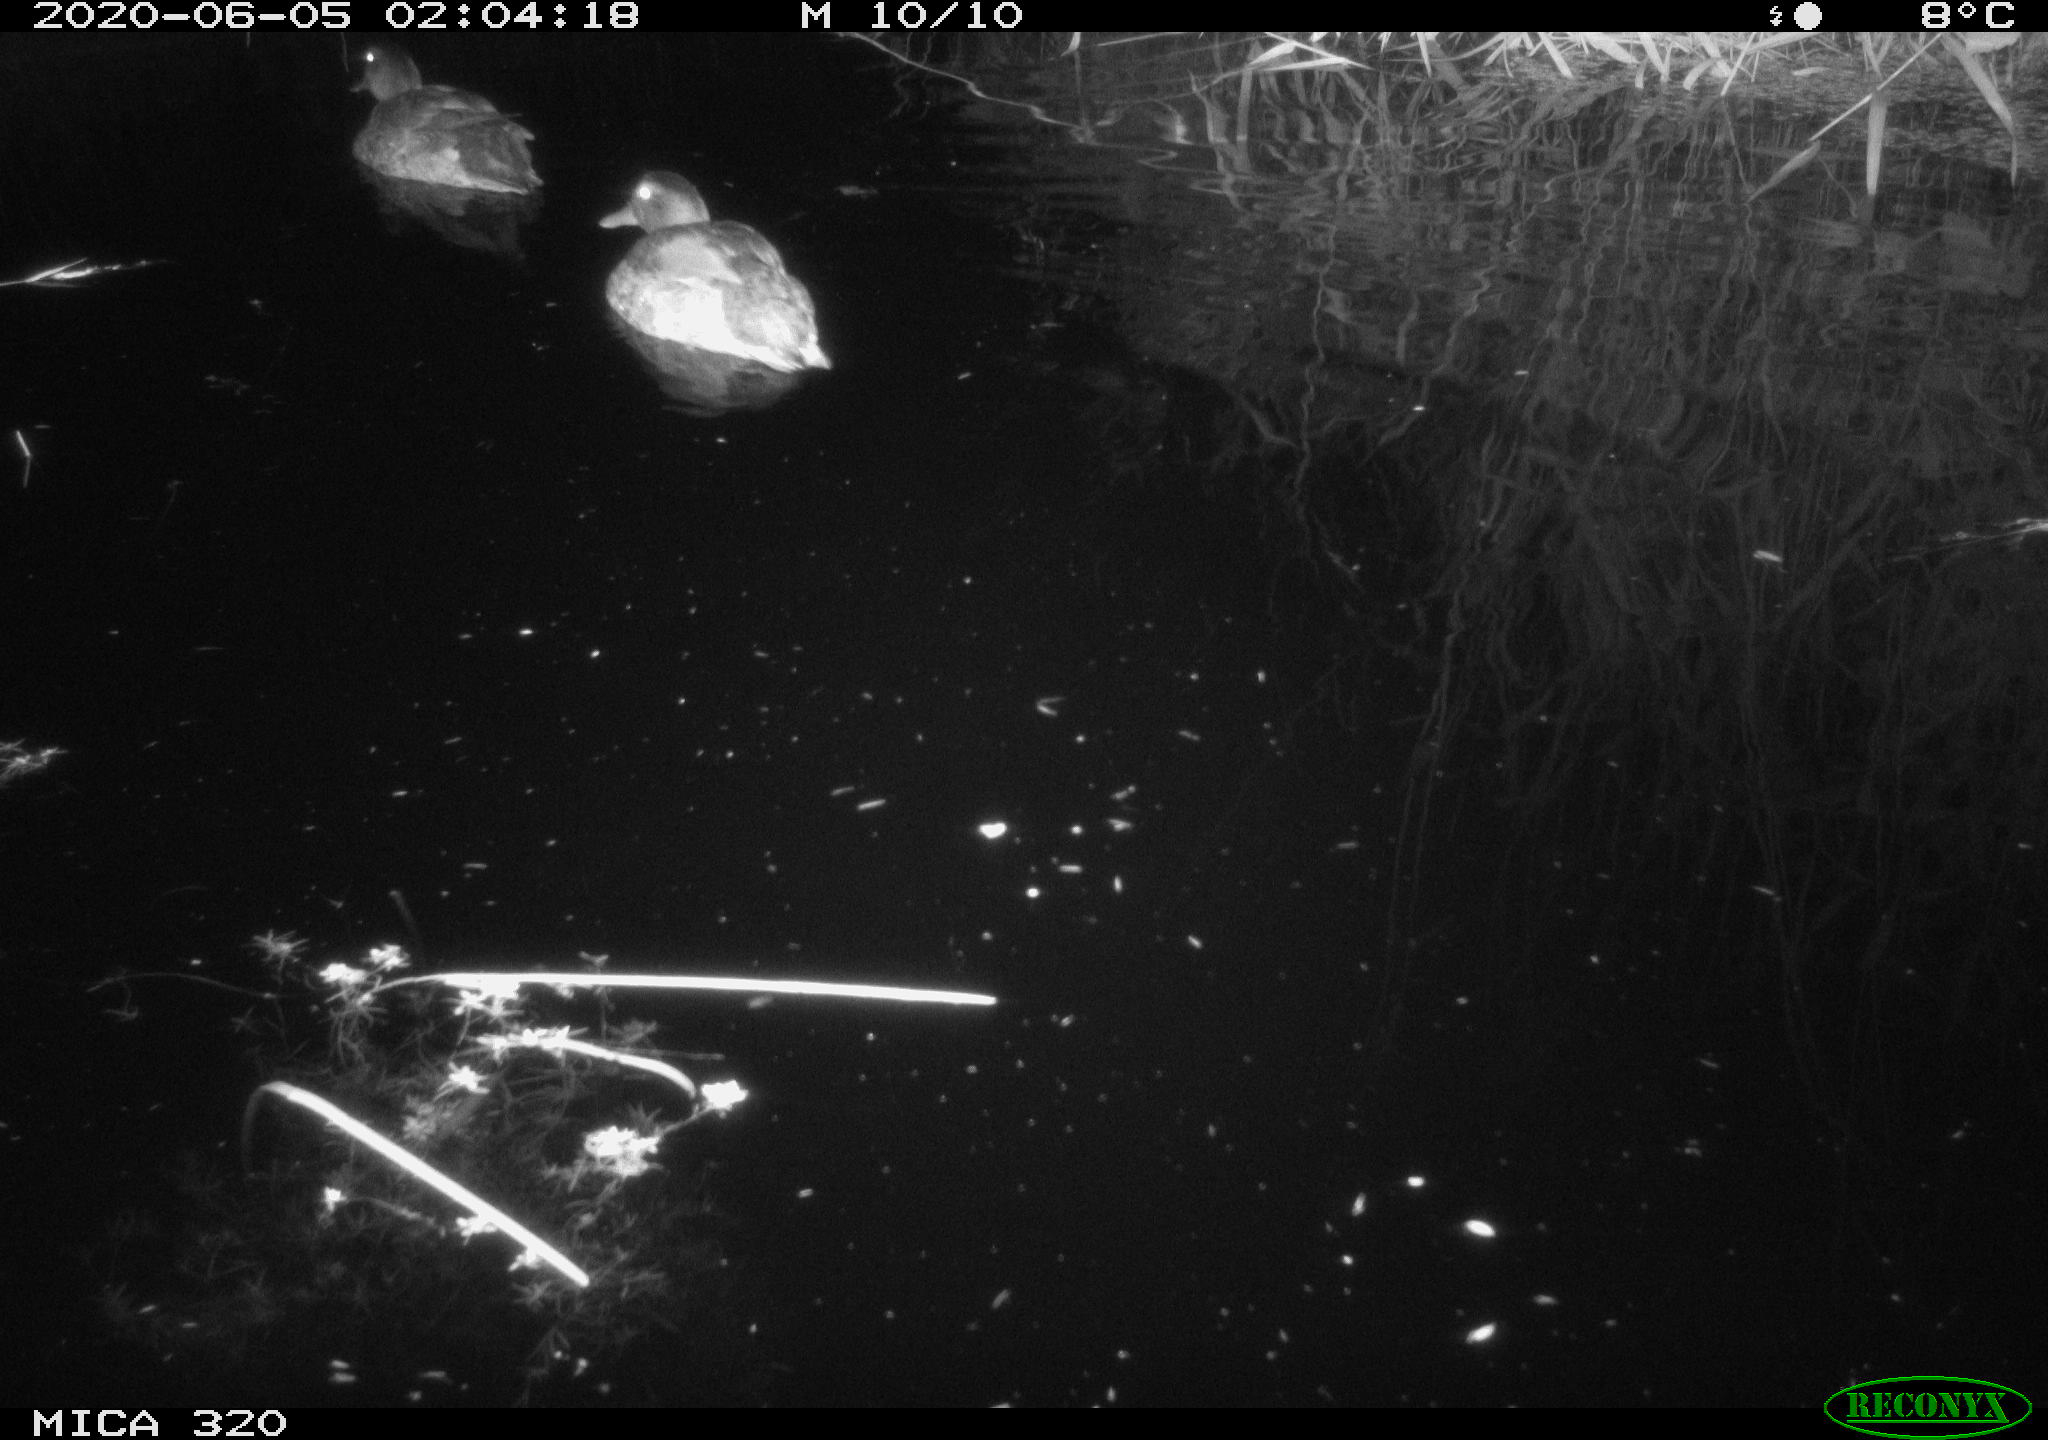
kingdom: Animalia
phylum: Chordata
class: Aves
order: Anseriformes
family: Anatidae
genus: Anas
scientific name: Anas platyrhynchos
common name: Mallard
